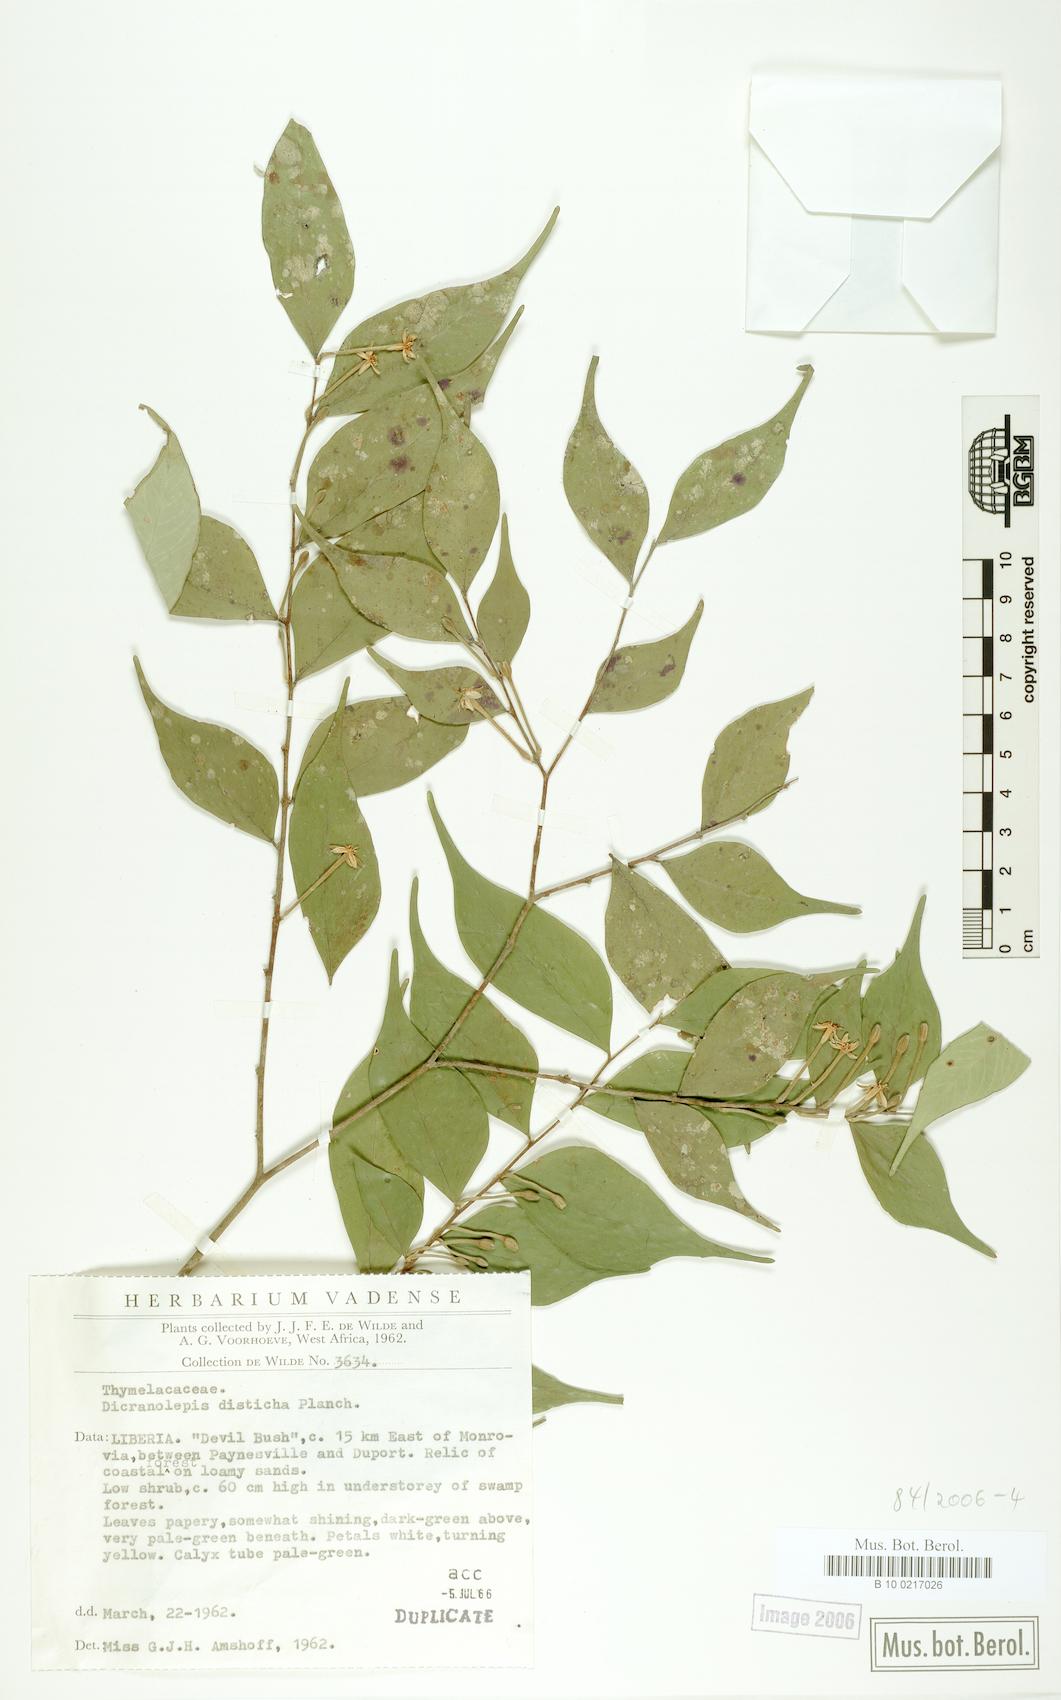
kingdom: Plantae
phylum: Tracheophyta
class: Magnoliopsida
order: Malvales
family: Thymelaeaceae
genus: Dicranolepis
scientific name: Dicranolepis disticha
